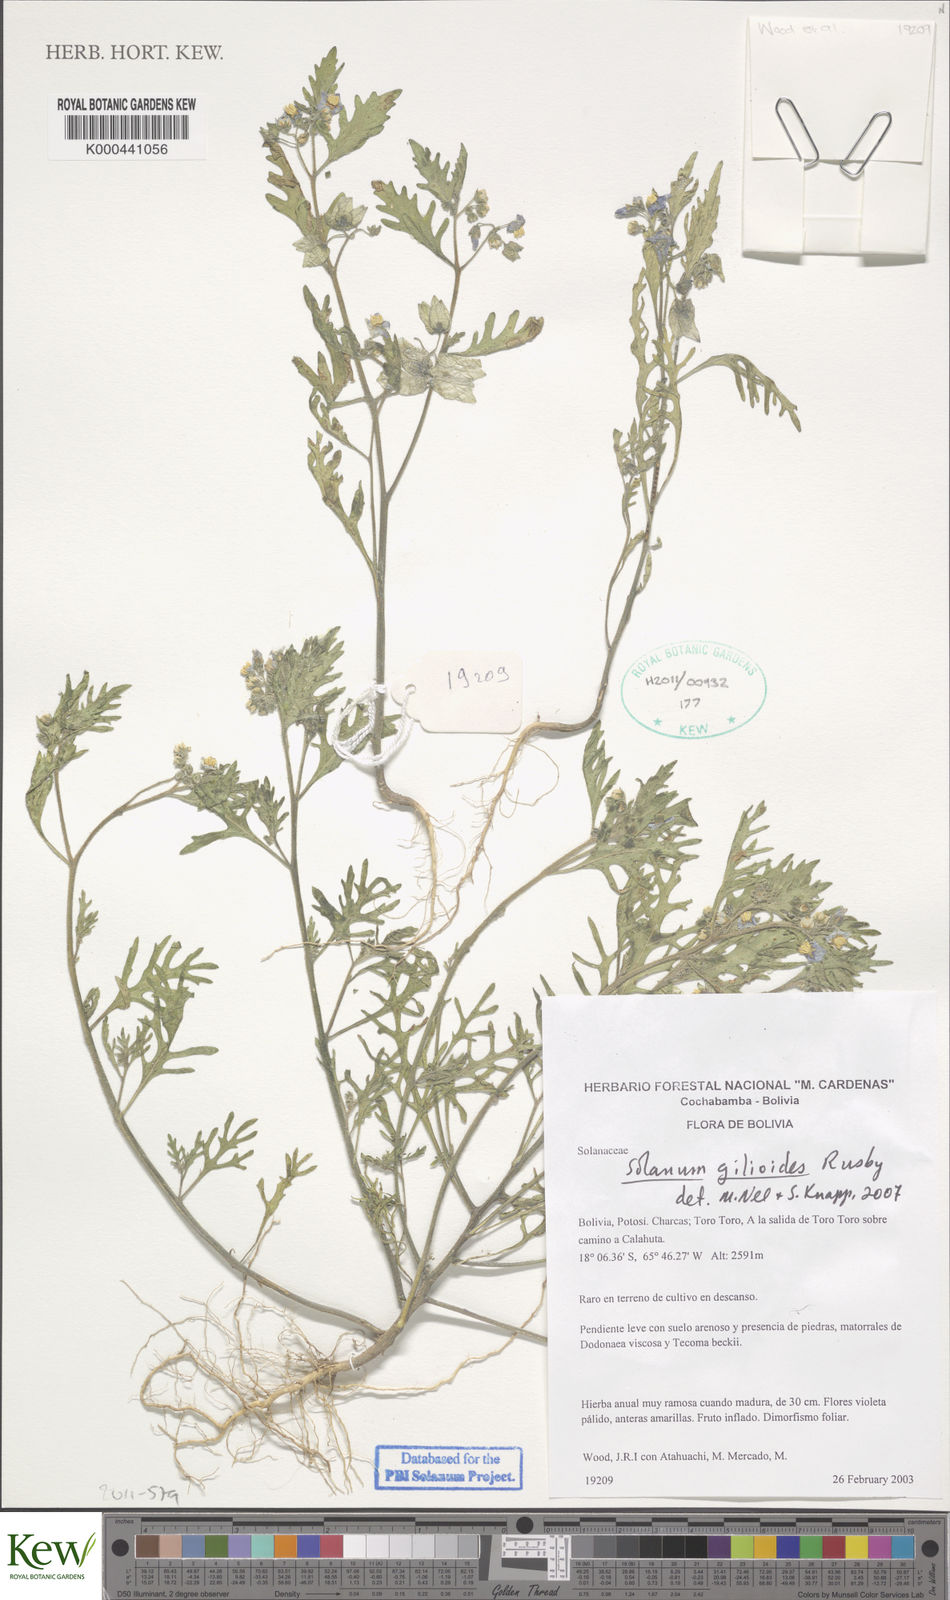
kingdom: Plantae
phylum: Tracheophyta
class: Magnoliopsida
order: Solanales
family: Solanaceae
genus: Solanum
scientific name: Solanum gilioides
